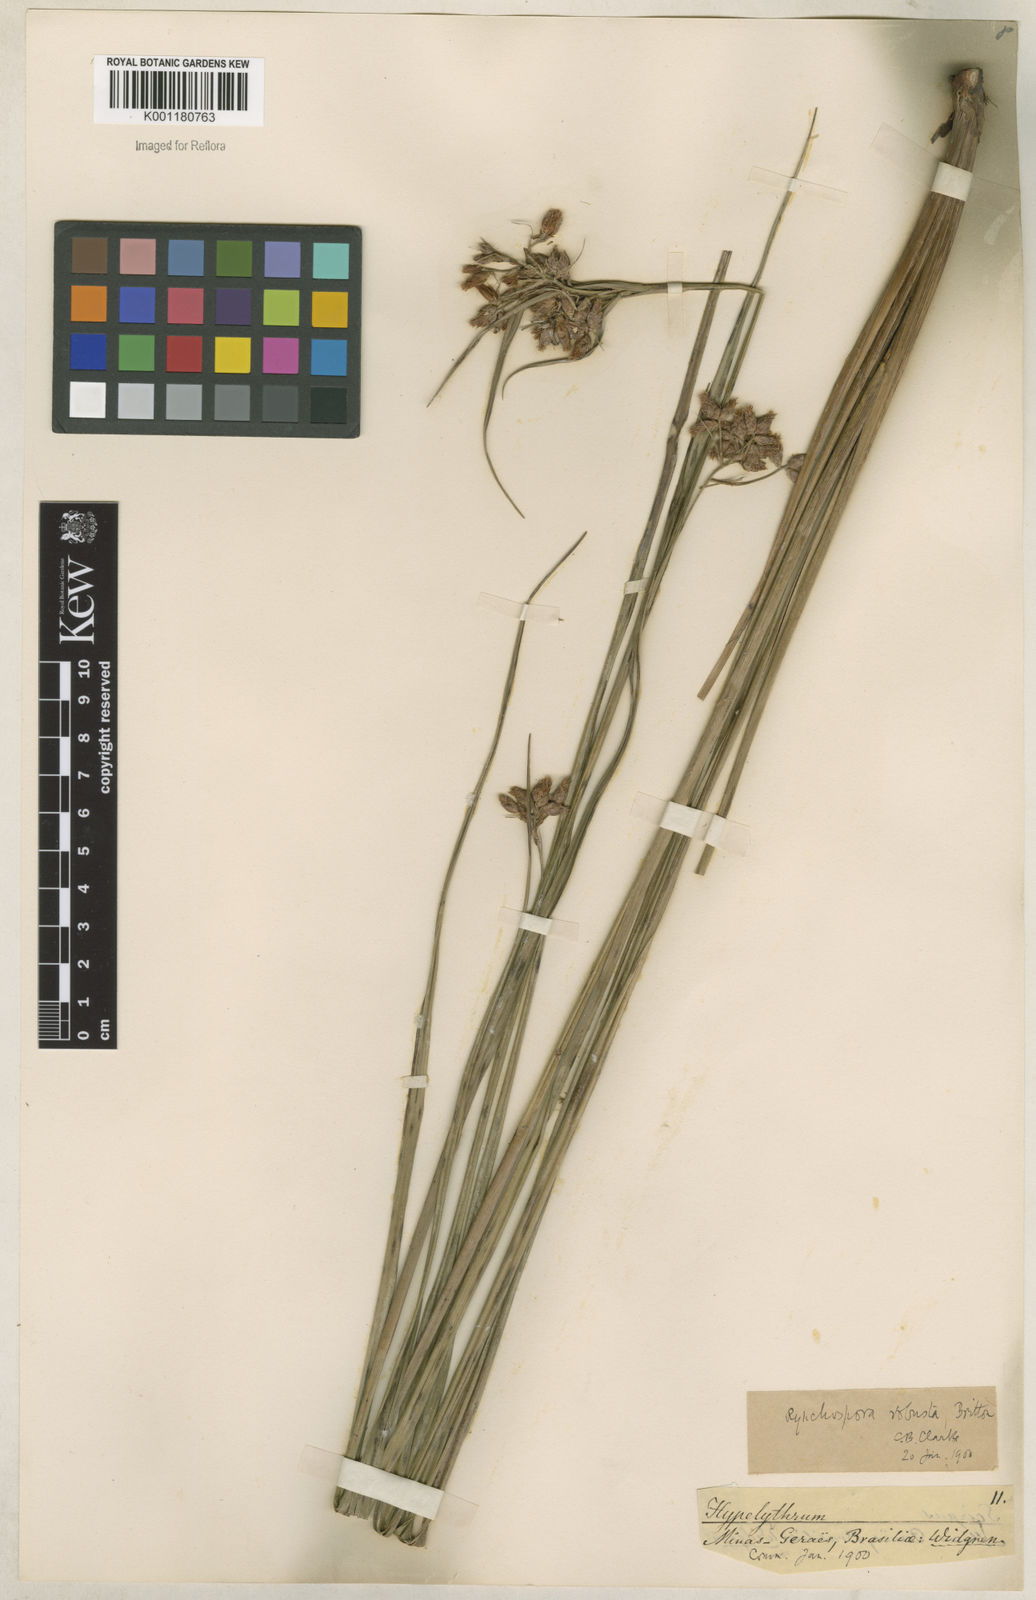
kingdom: Plantae
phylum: Tracheophyta
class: Liliopsida
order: Poales
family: Cyperaceae
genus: Rhynchospora
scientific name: Rhynchospora robusta
